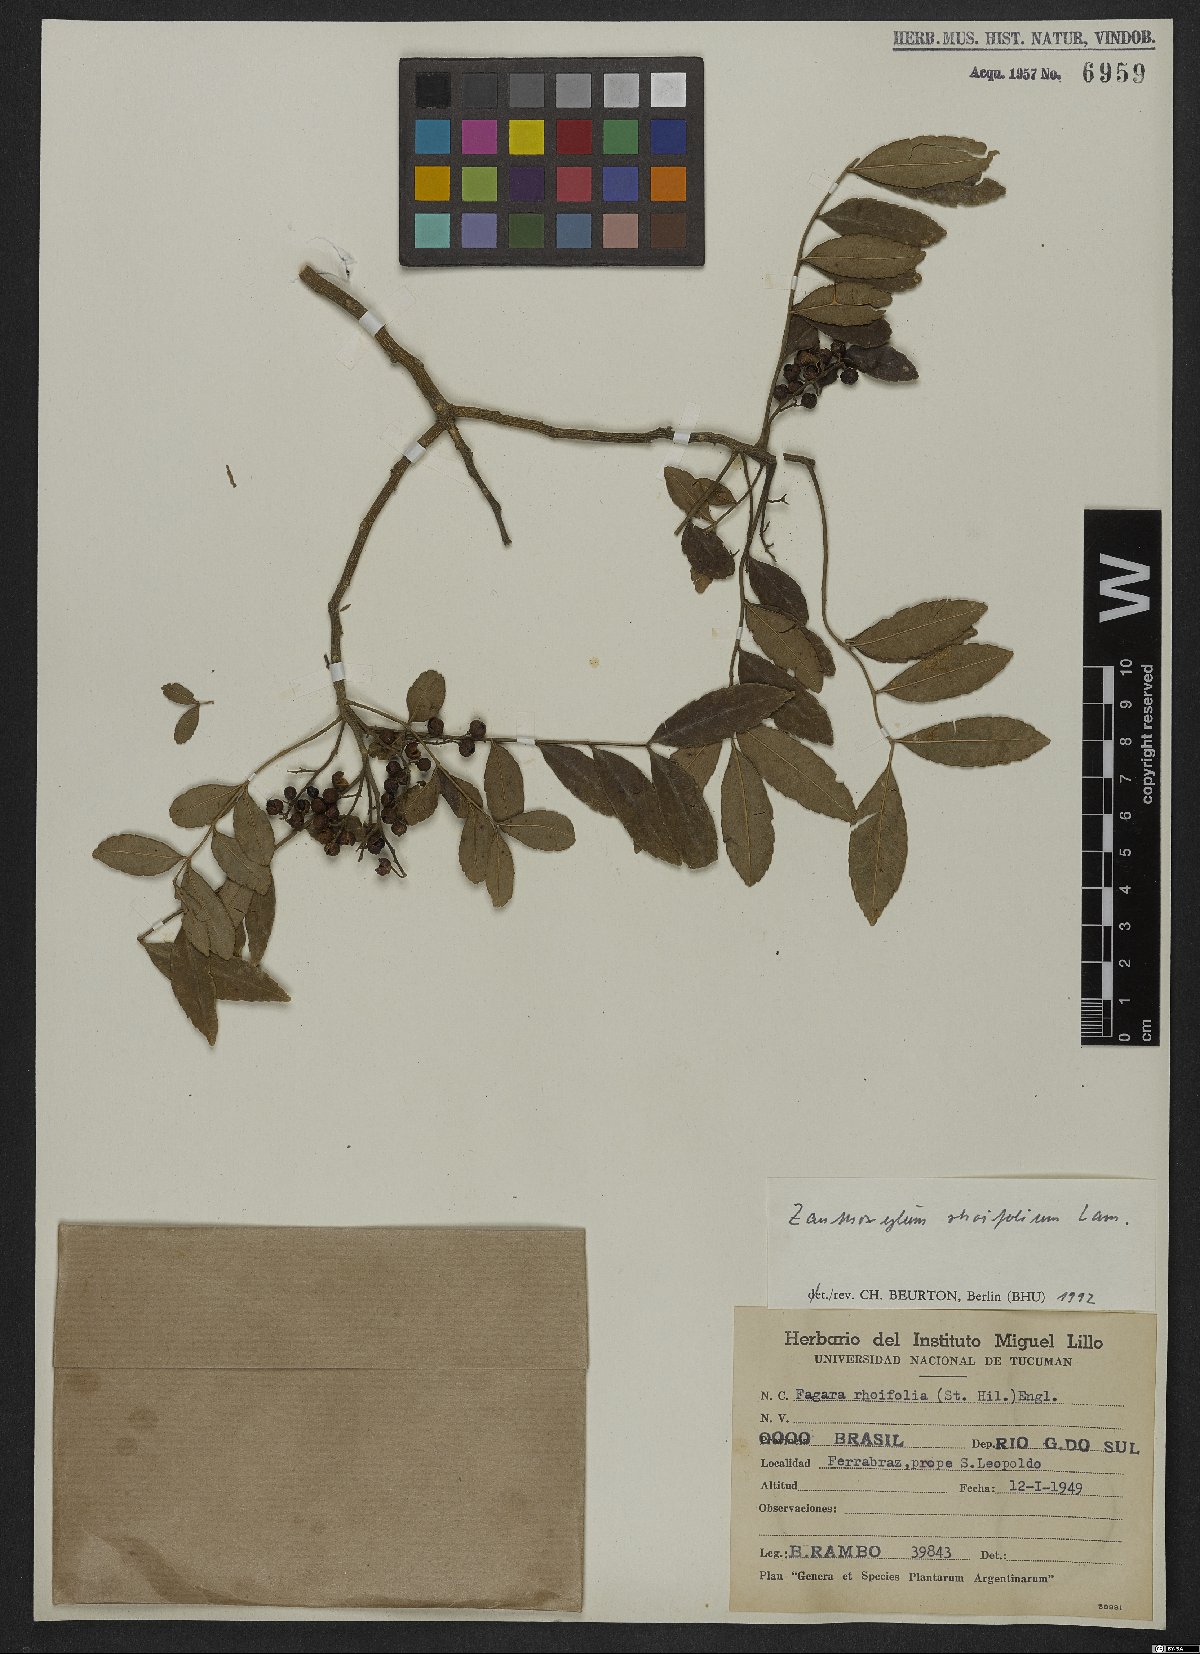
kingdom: Plantae
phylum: Tracheophyta
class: Magnoliopsida
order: Sapindales
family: Rutaceae
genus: Zanthoxylum
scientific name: Zanthoxylum rhoifolium
